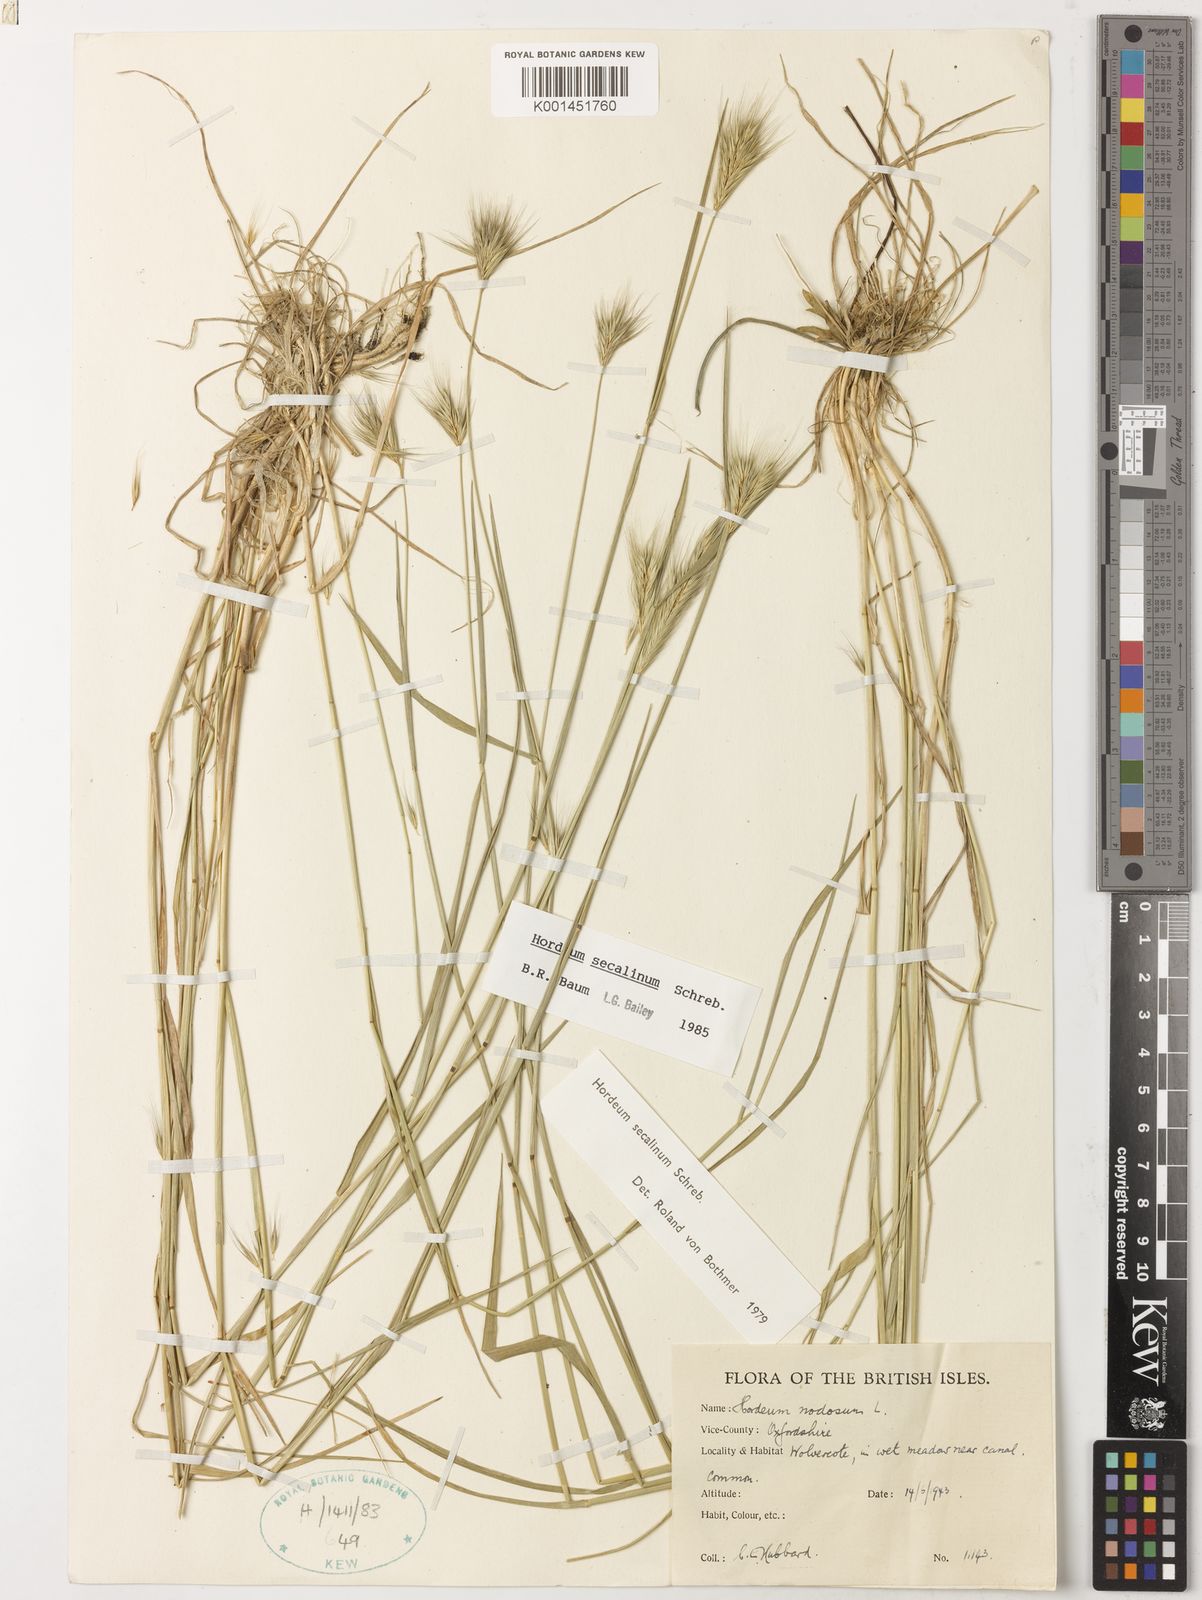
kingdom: Plantae
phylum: Tracheophyta
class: Liliopsida
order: Poales
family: Poaceae
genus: Hordeum
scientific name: Hordeum secalinum
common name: Meadow barley
